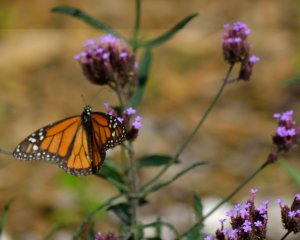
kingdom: Animalia
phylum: Arthropoda
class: Insecta
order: Lepidoptera
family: Nymphalidae
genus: Danaus
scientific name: Danaus plexippus
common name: Monarch
